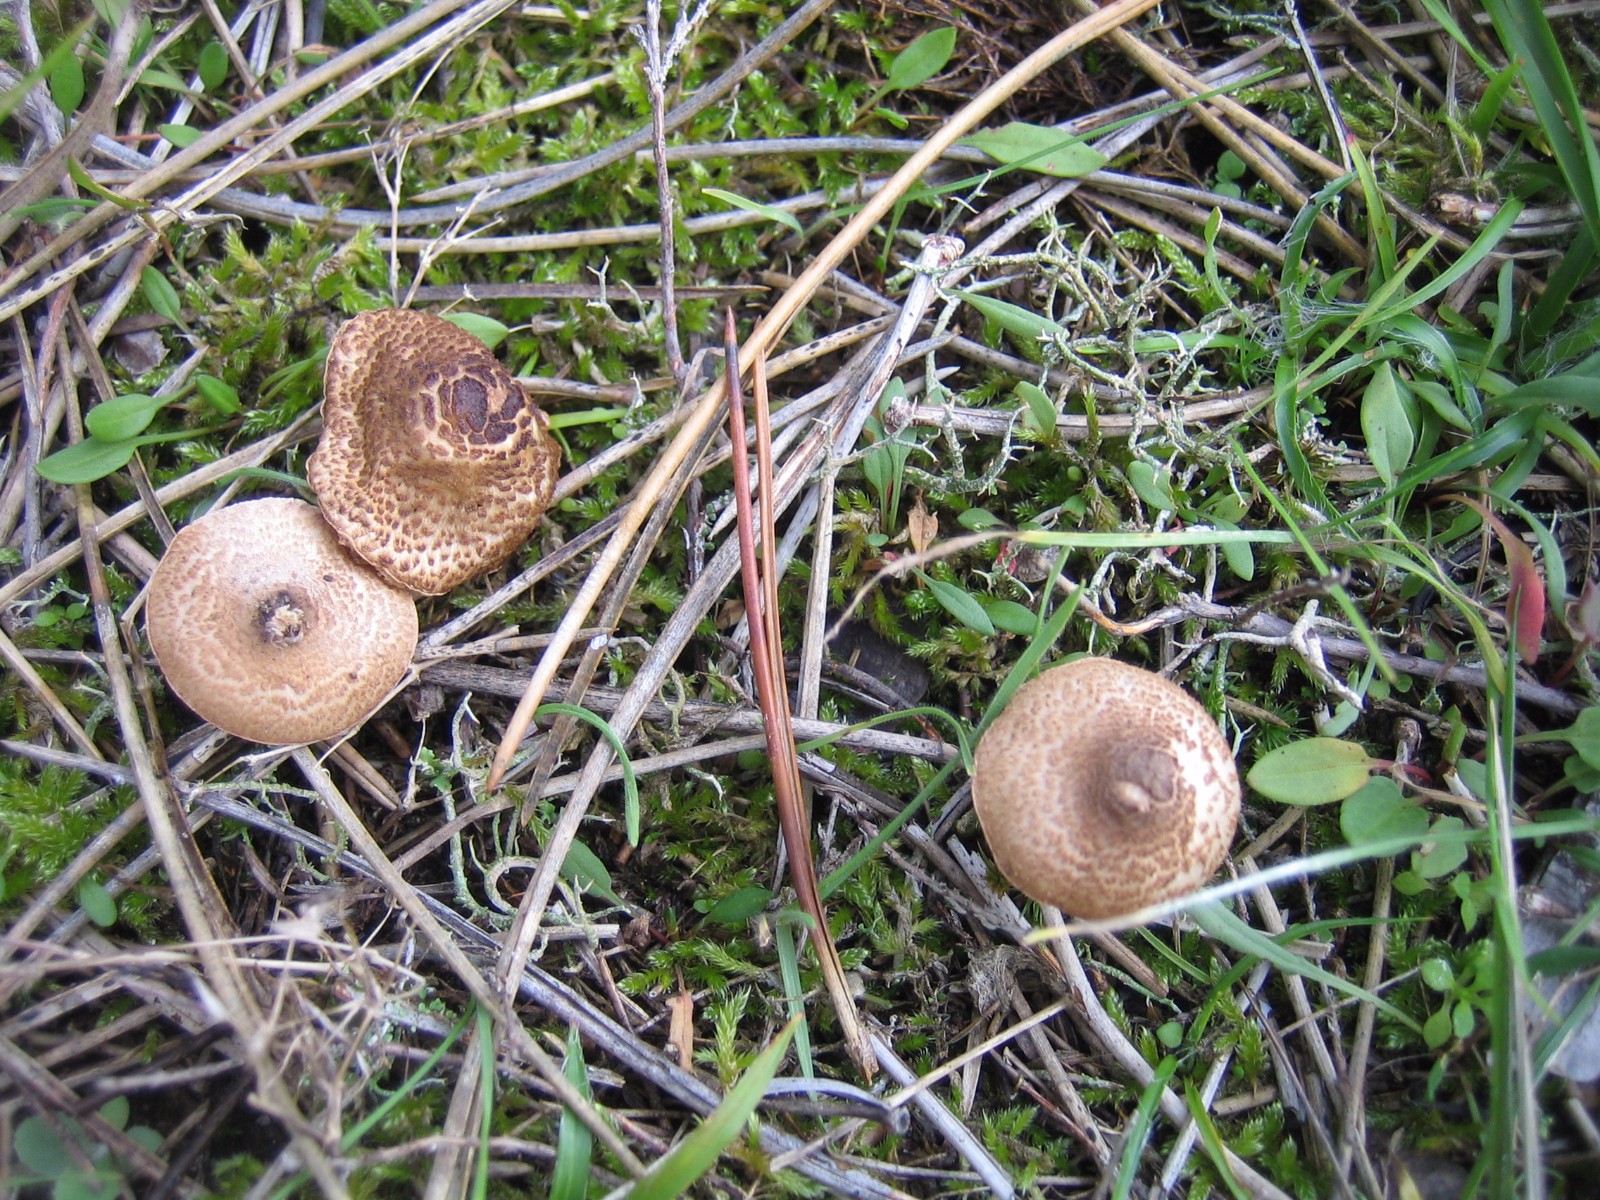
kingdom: Fungi
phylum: Basidiomycota
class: Agaricomycetes
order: Agaricales
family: Agaricaceae
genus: Lepiota
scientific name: Lepiota pseudolilacea
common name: gråbrun parasolhat
